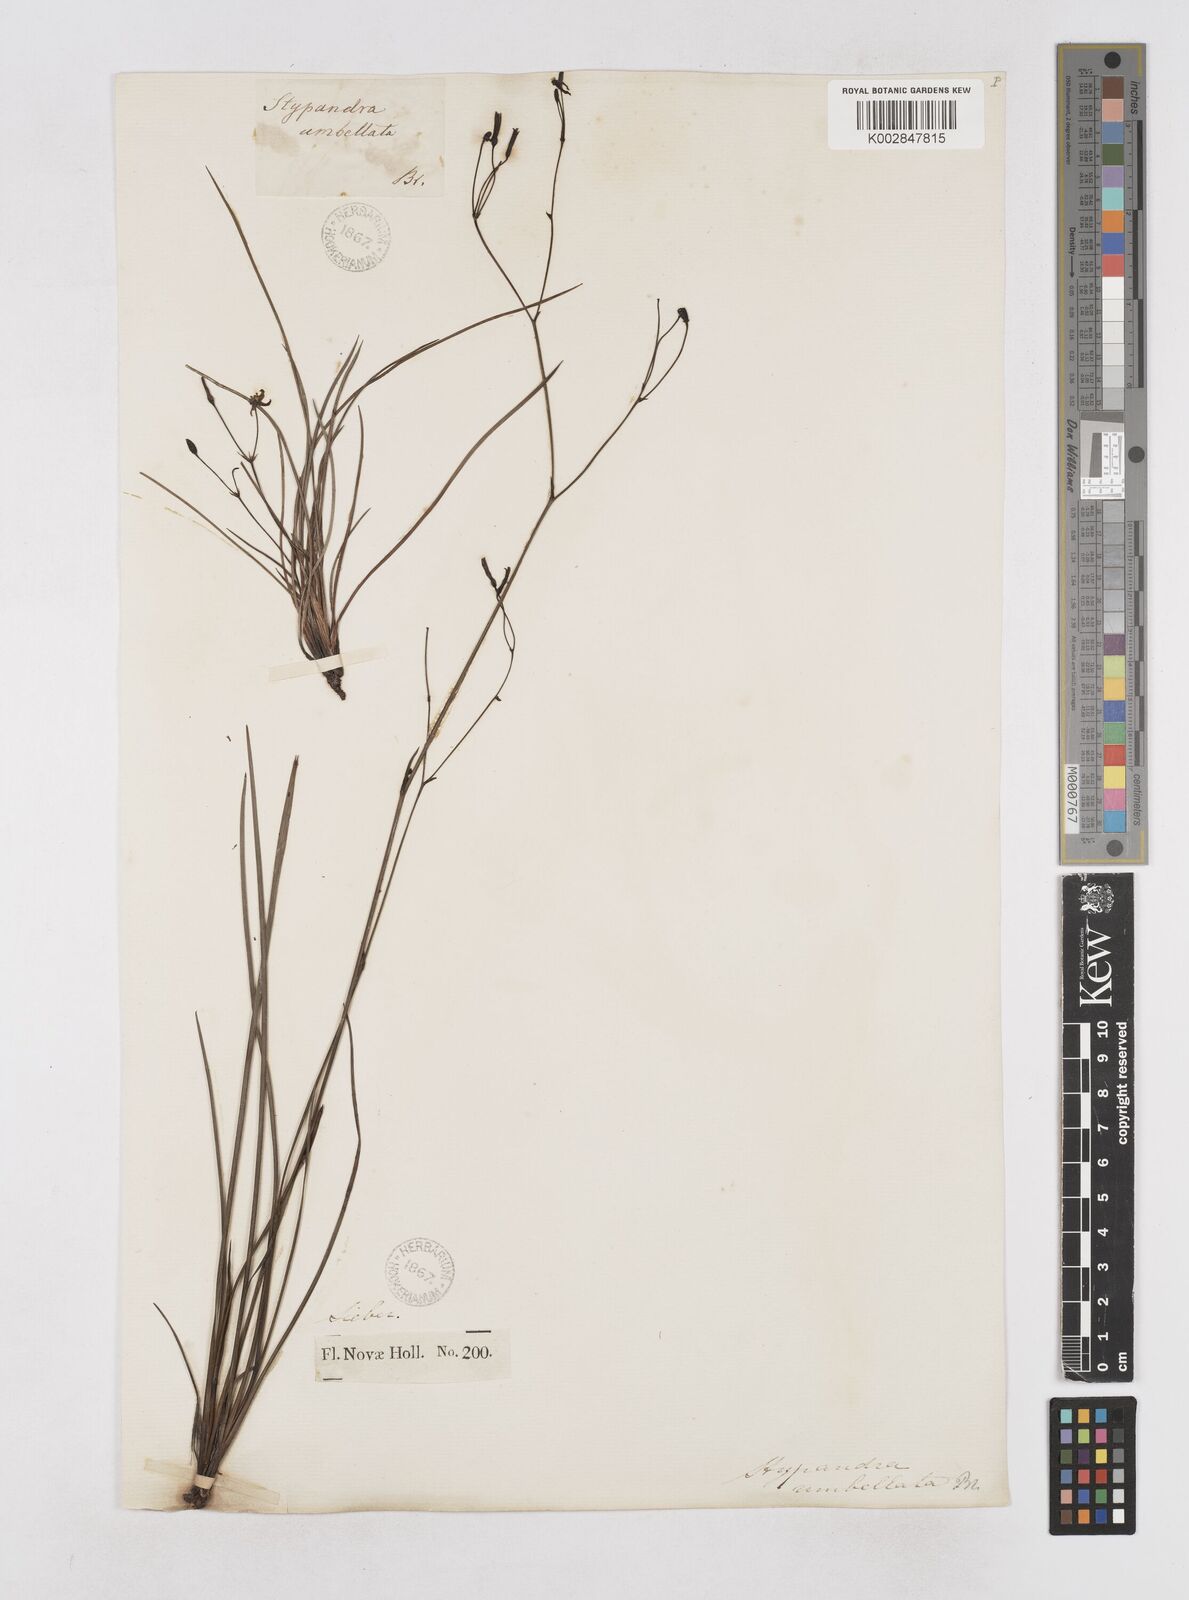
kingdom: Plantae
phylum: Tracheophyta
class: Liliopsida
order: Asparagales
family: Asphodelaceae
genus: Thelionema
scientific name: Thelionema umbellatum
